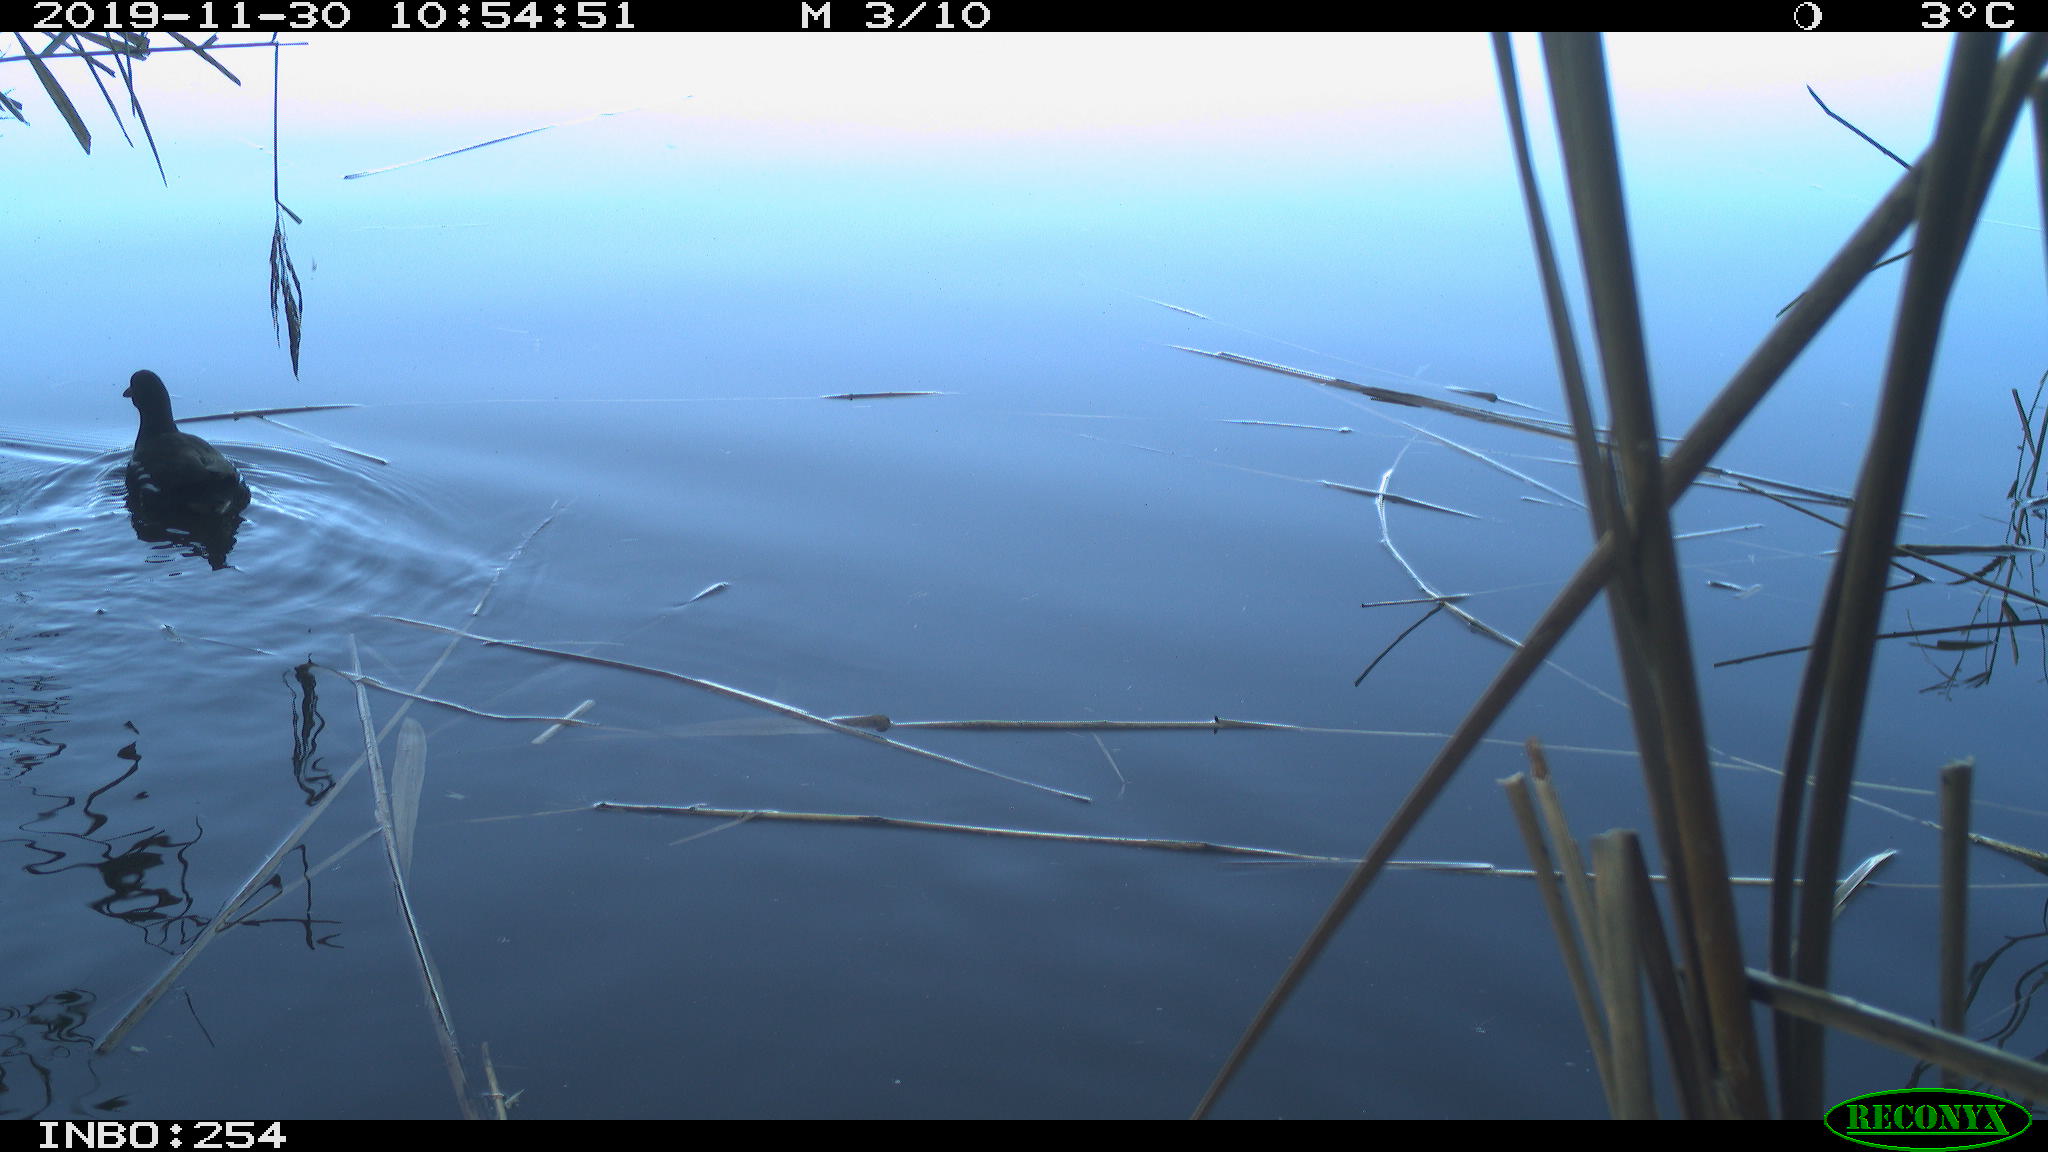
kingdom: Animalia
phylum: Chordata
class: Aves
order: Gruiformes
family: Rallidae
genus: Gallinula
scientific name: Gallinula chloropus
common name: Common moorhen
